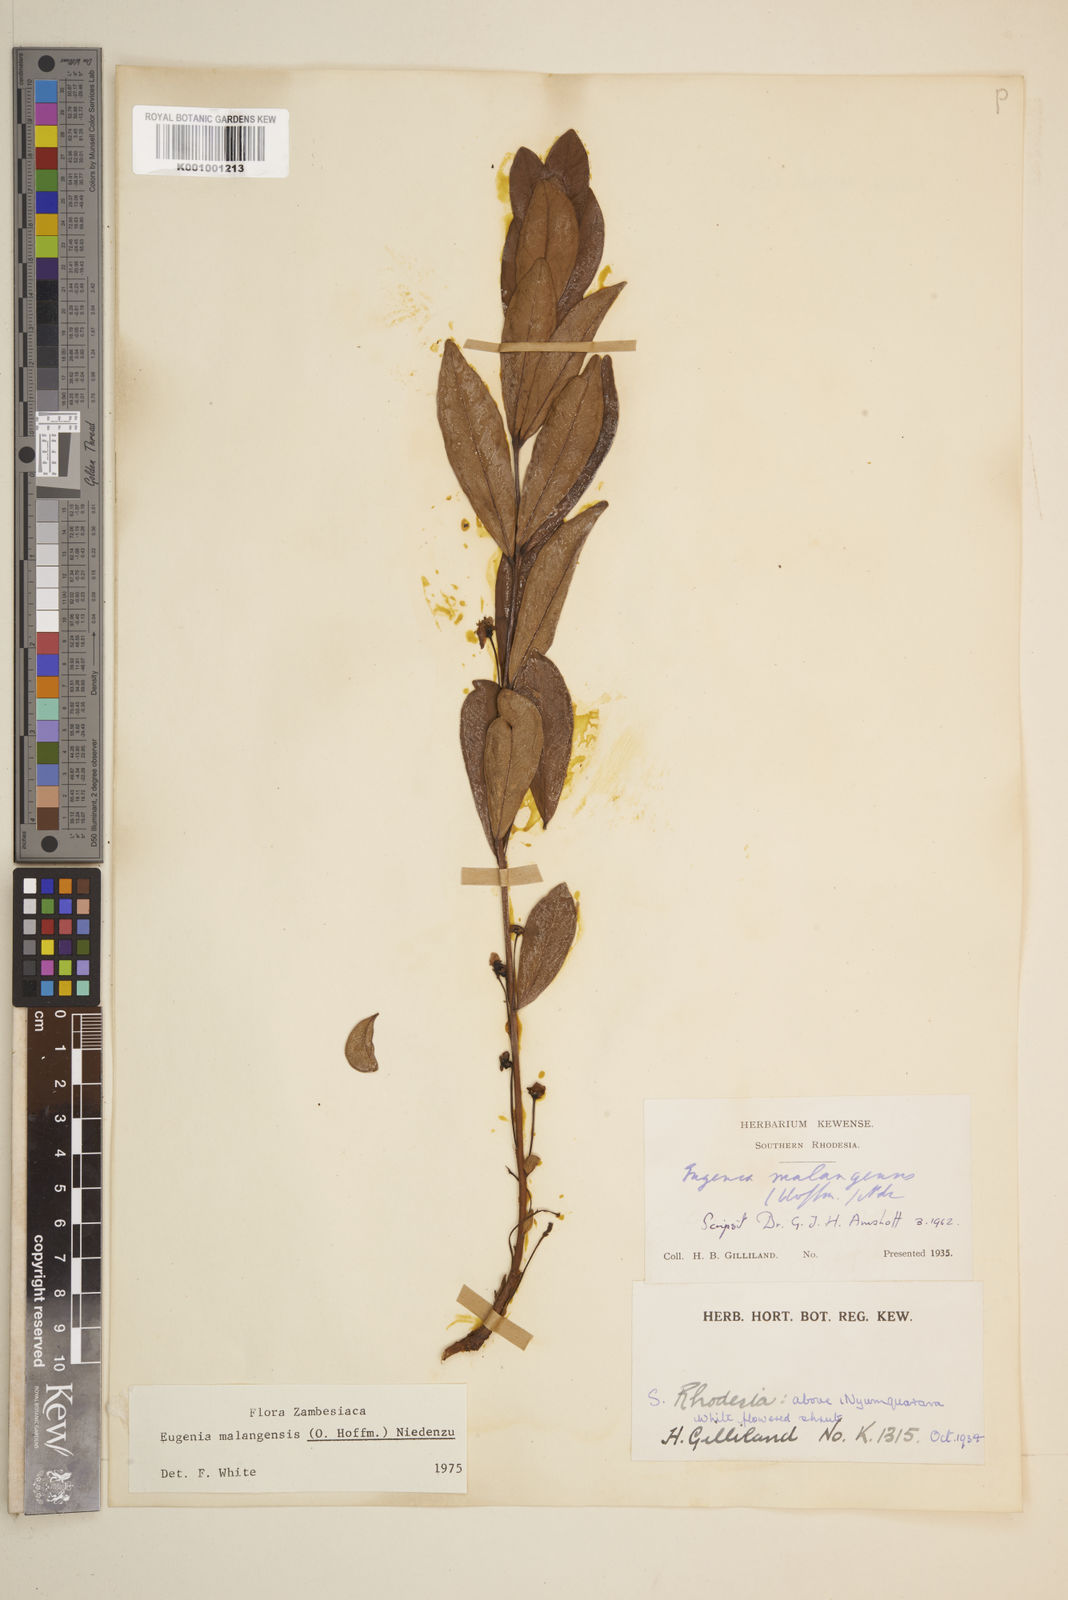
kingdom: Plantae
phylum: Tracheophyta
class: Magnoliopsida
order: Myrtales
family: Myrtaceae
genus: Eugenia
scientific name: Eugenia malangensis
